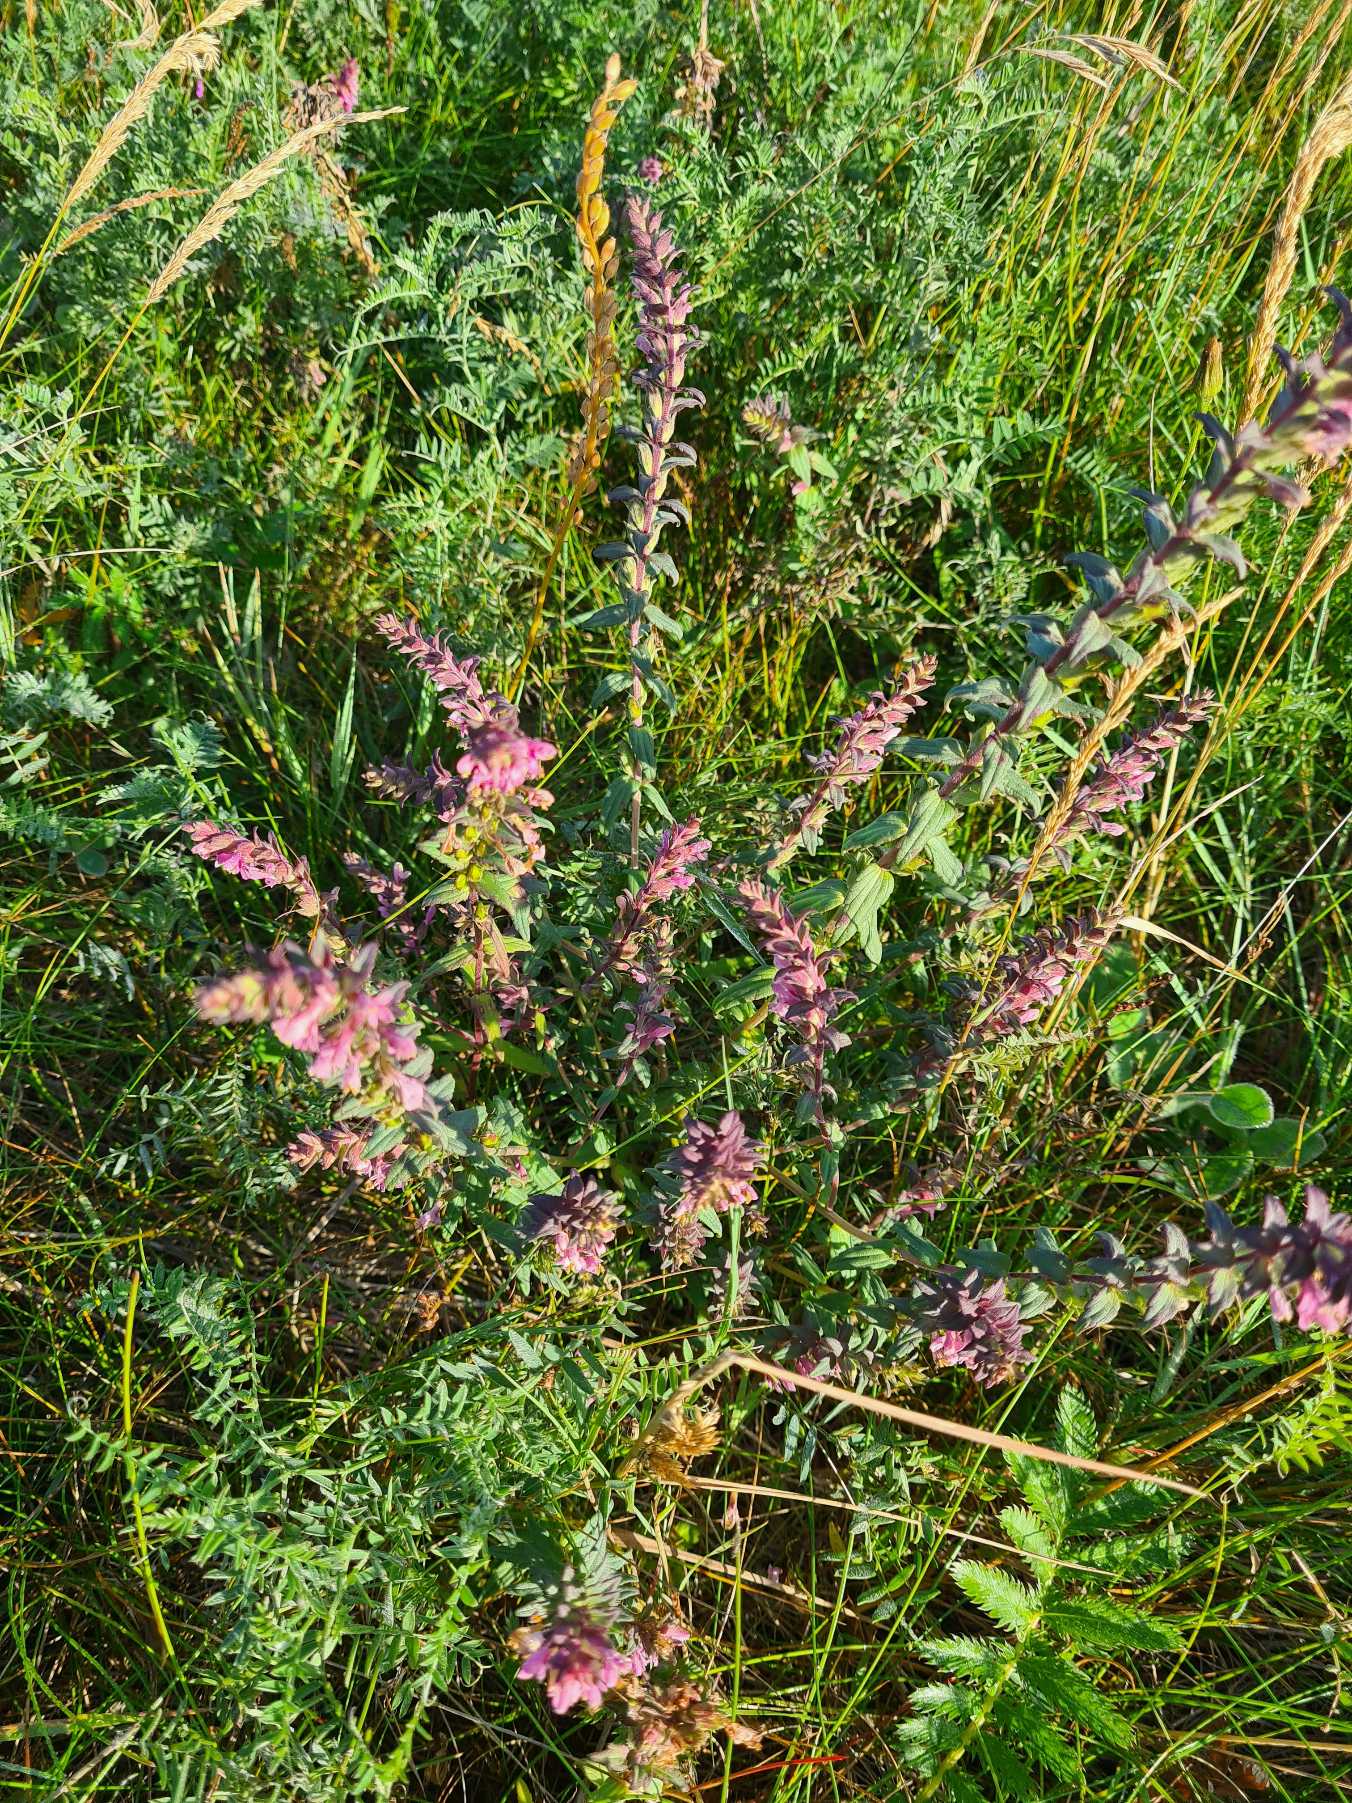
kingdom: Plantae
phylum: Tracheophyta
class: Magnoliopsida
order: Lamiales
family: Orobanchaceae
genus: Odontites
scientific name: Odontites vulgaris
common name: Høst-rødtop
